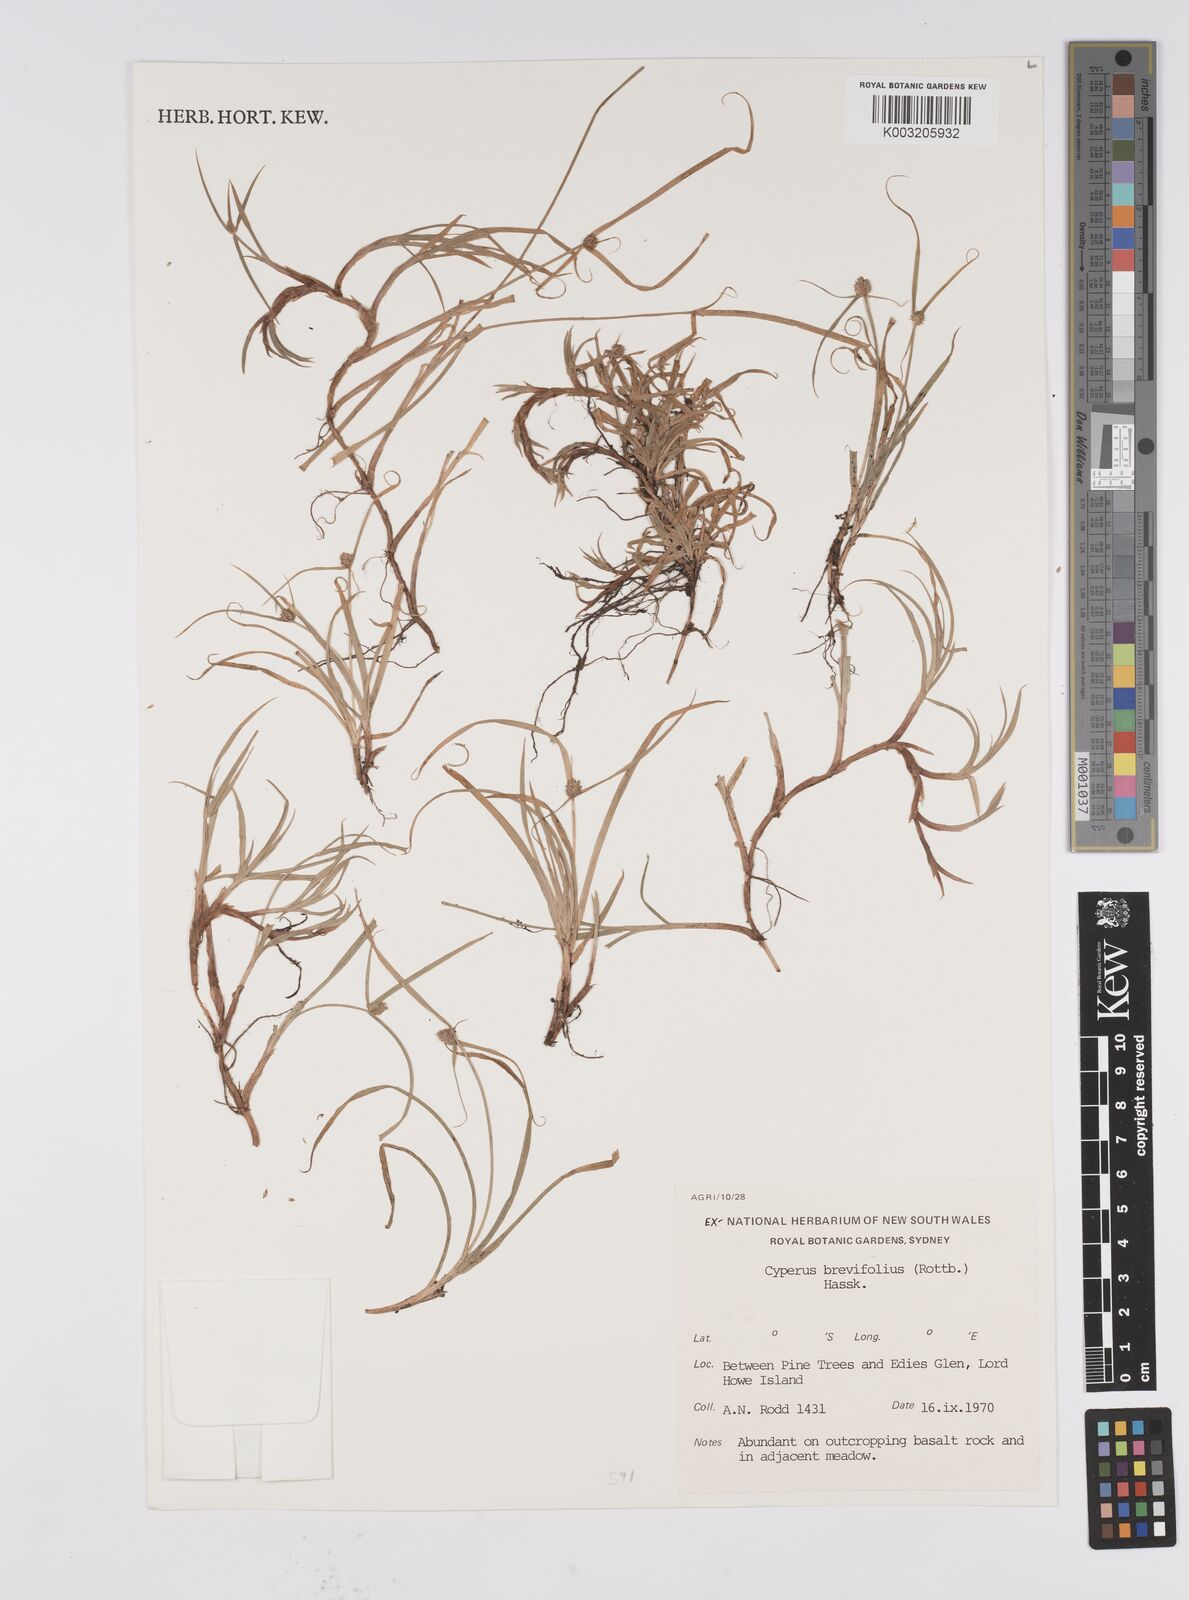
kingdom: Plantae
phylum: Tracheophyta
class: Liliopsida
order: Poales
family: Cyperaceae
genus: Cyperus
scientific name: Cyperus brevifolius
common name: Globe kyllinga
